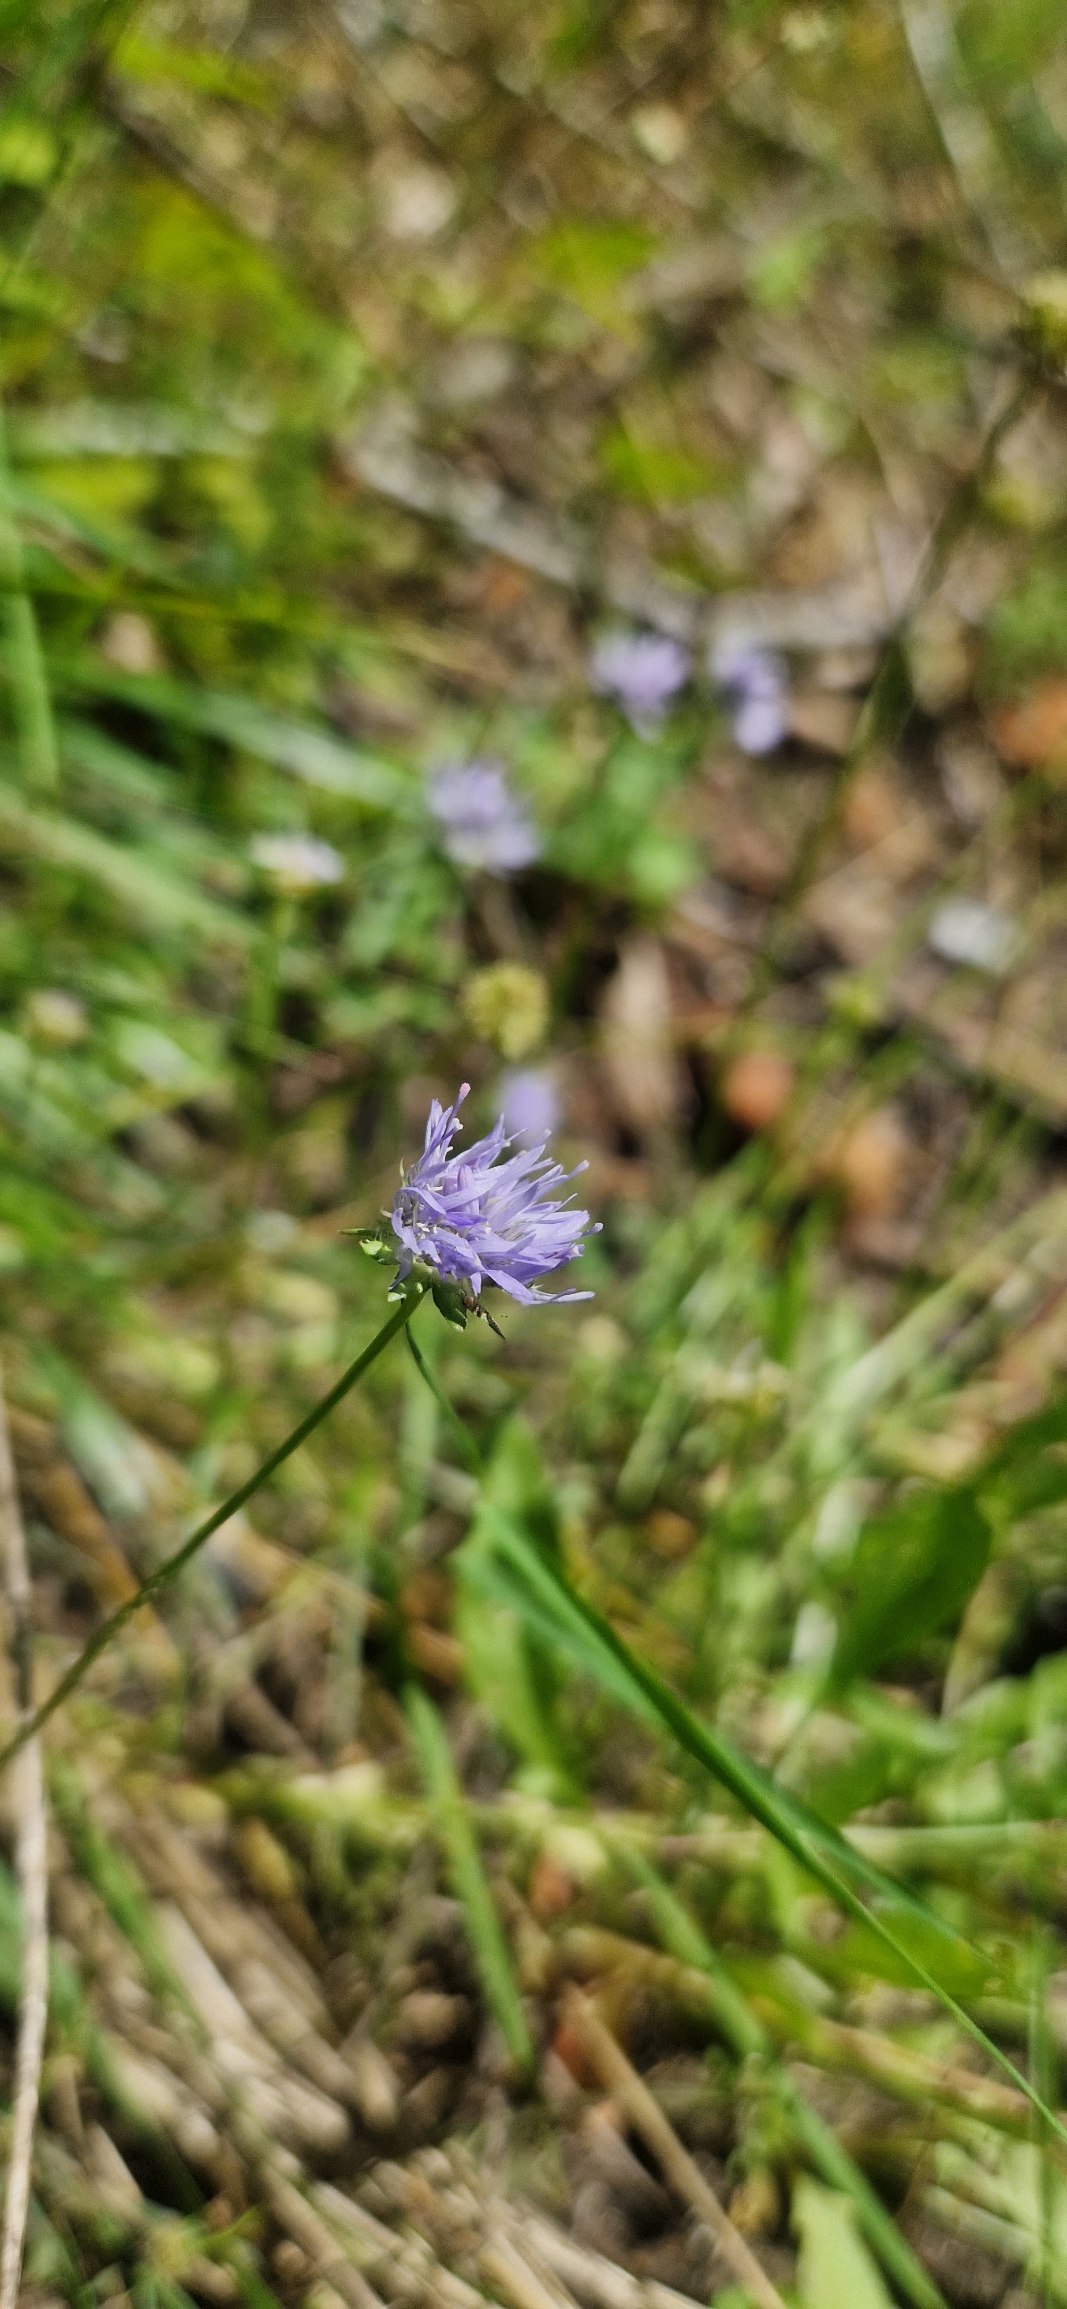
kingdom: Plantae
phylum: Tracheophyta
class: Magnoliopsida
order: Asterales
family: Campanulaceae
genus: Jasione
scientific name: Jasione montana
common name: Blåmunke
